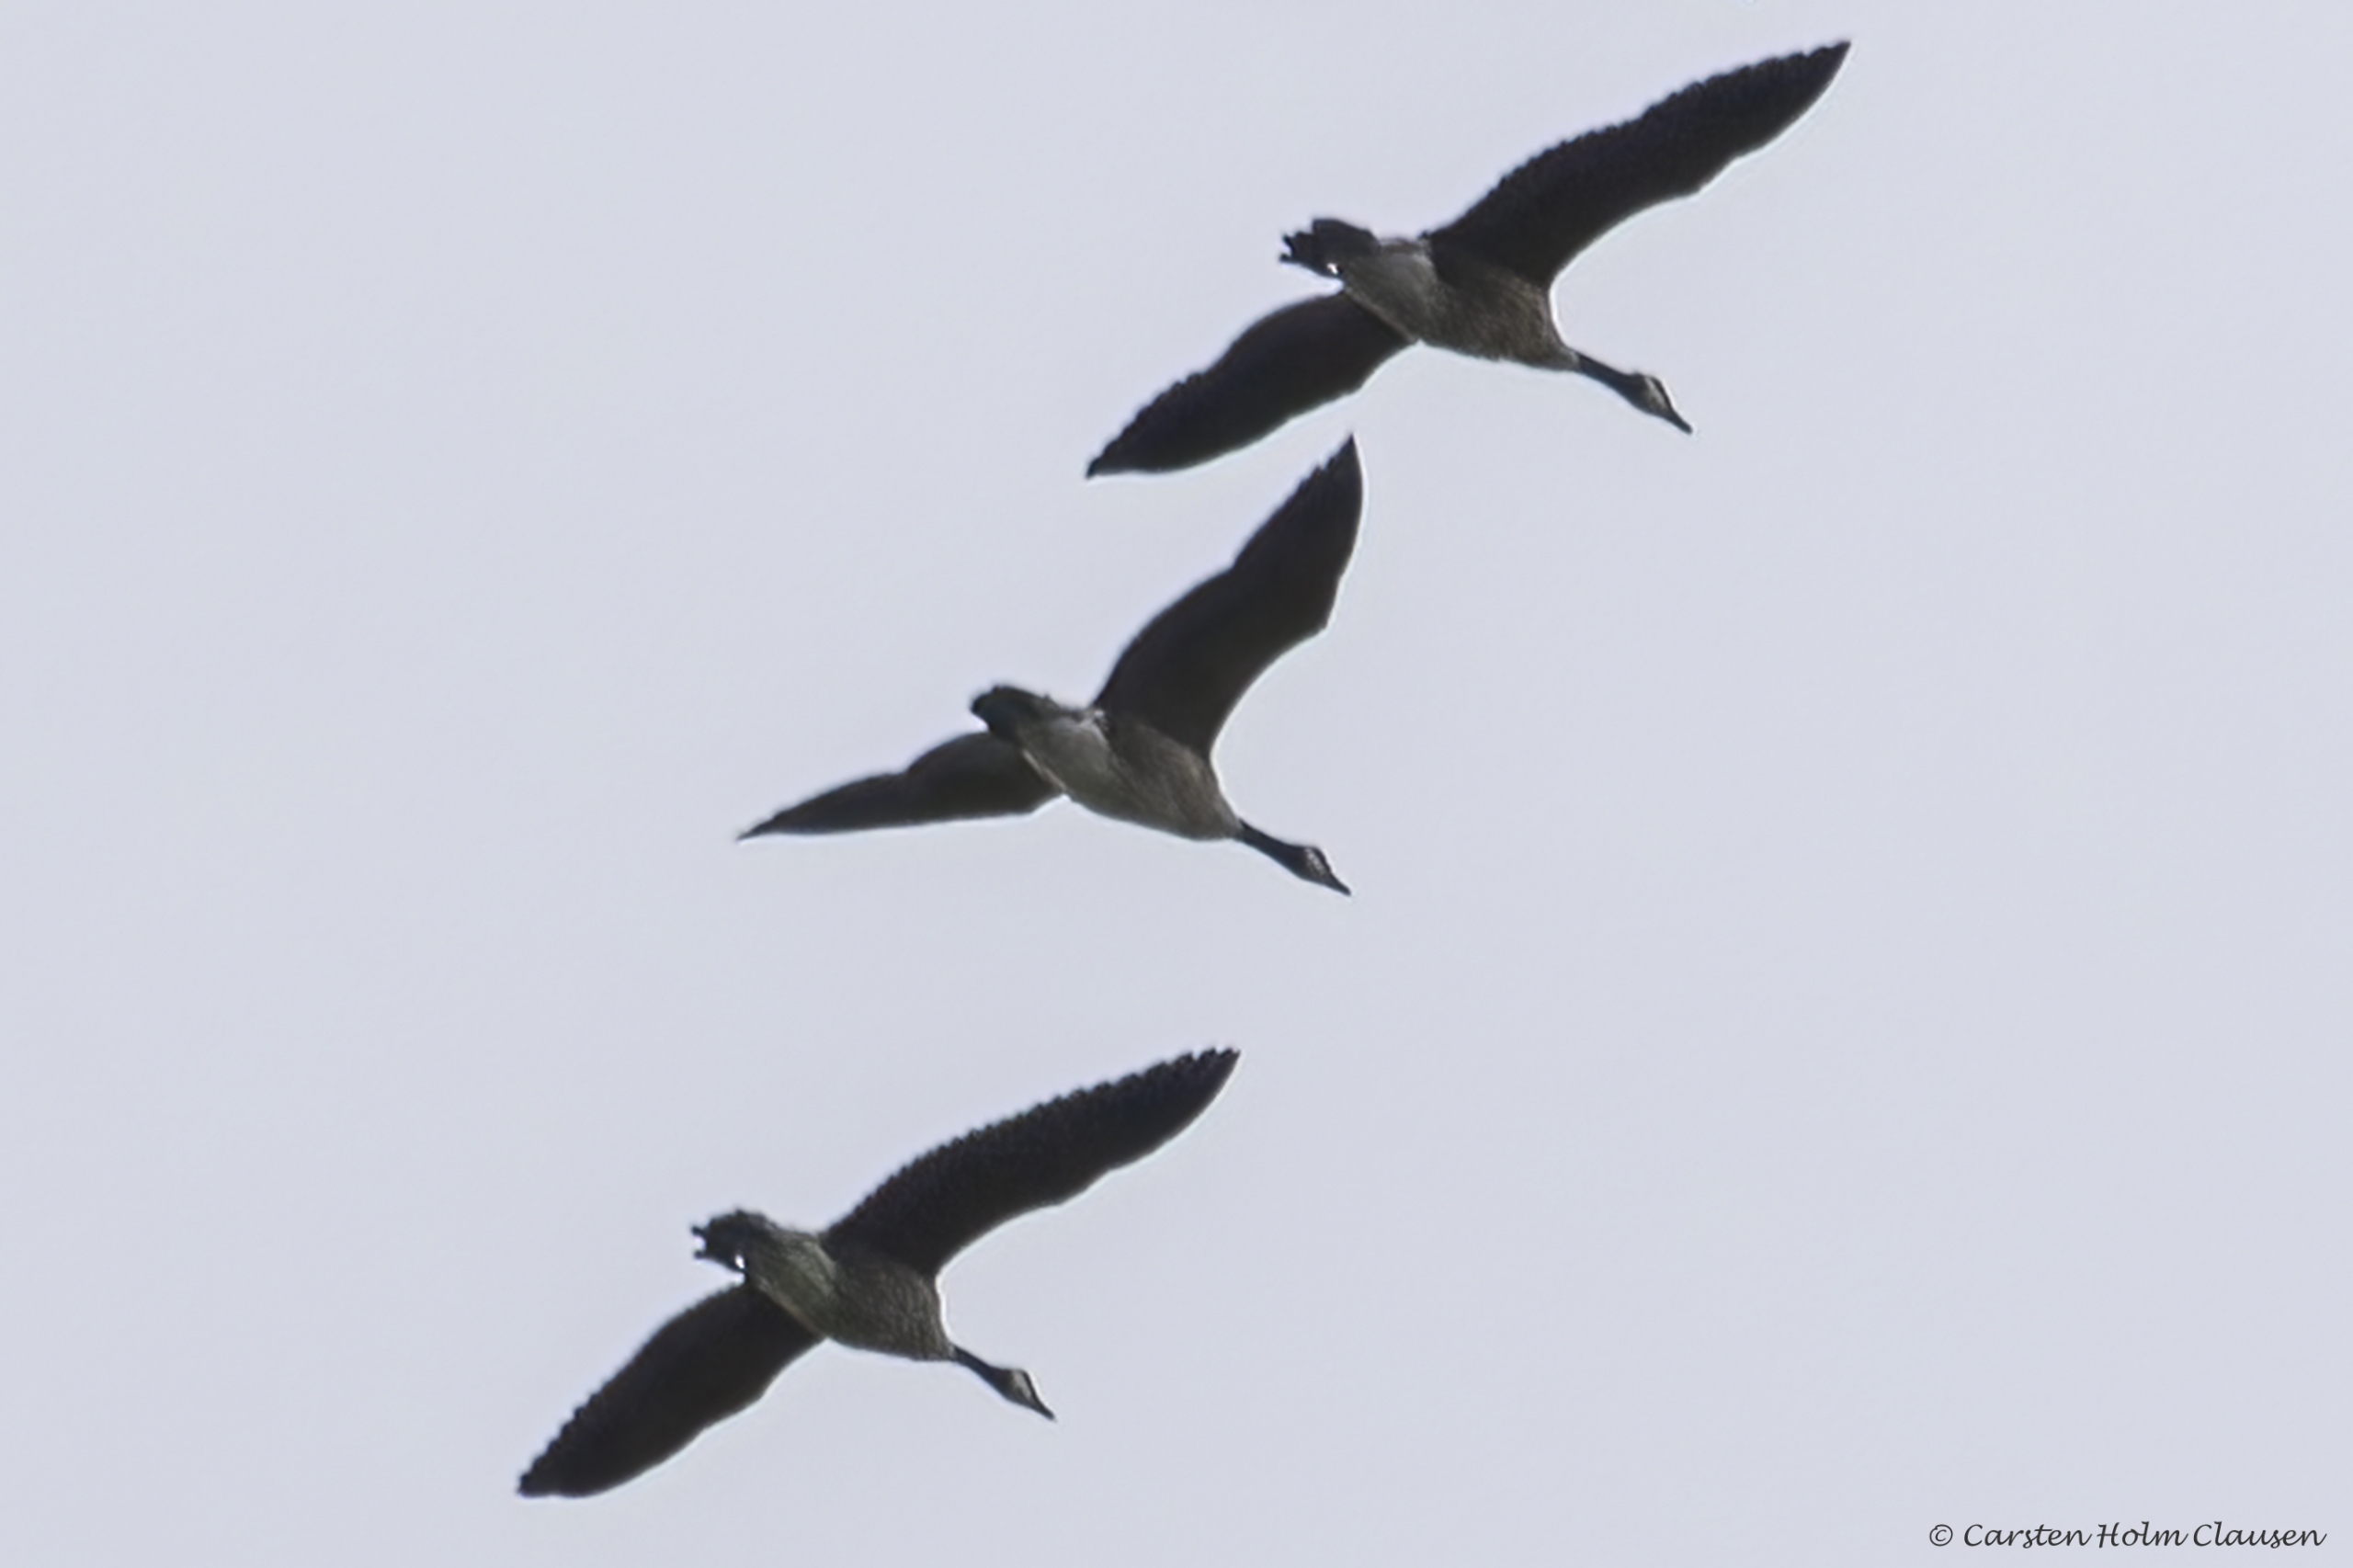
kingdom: Animalia
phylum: Chordata
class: Aves
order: Anseriformes
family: Anatidae
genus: Branta
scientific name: Branta canadensis
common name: Canadagås
